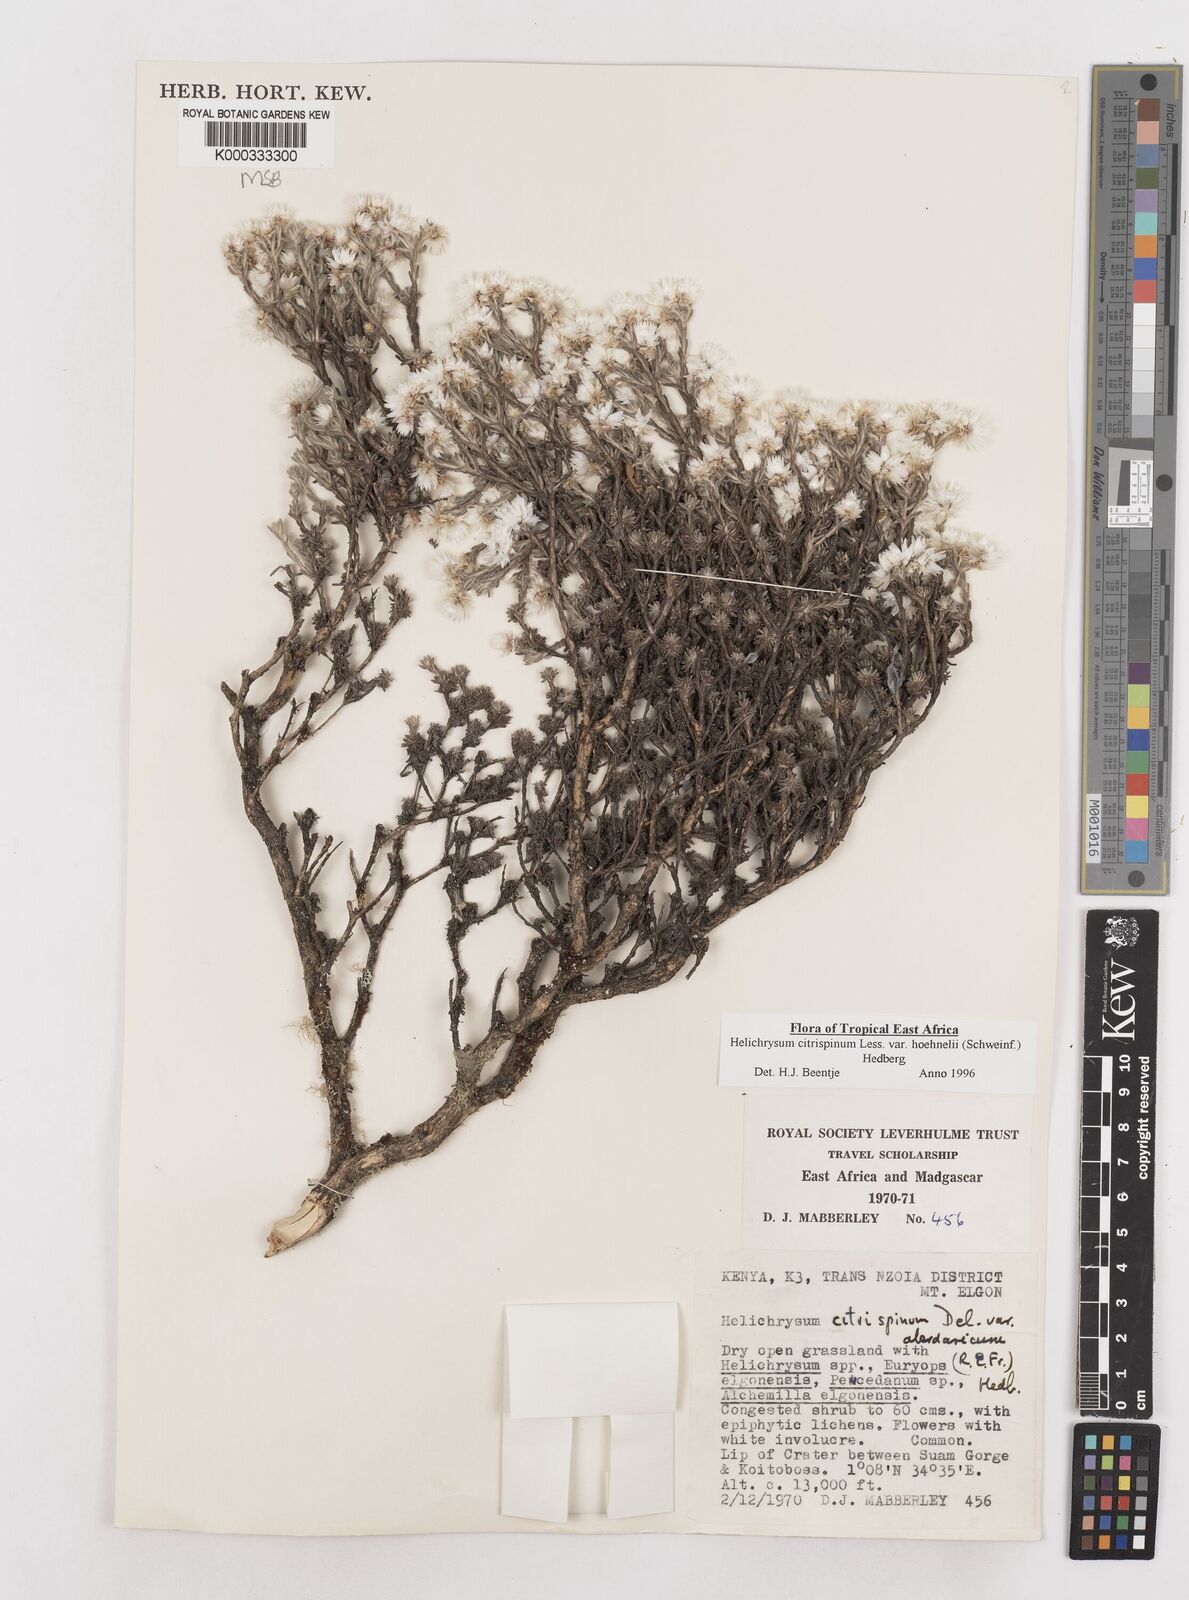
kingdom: Plantae
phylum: Tracheophyta
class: Magnoliopsida
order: Asterales
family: Asteraceae
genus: Helichrysum
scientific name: Helichrysum citrispinum
